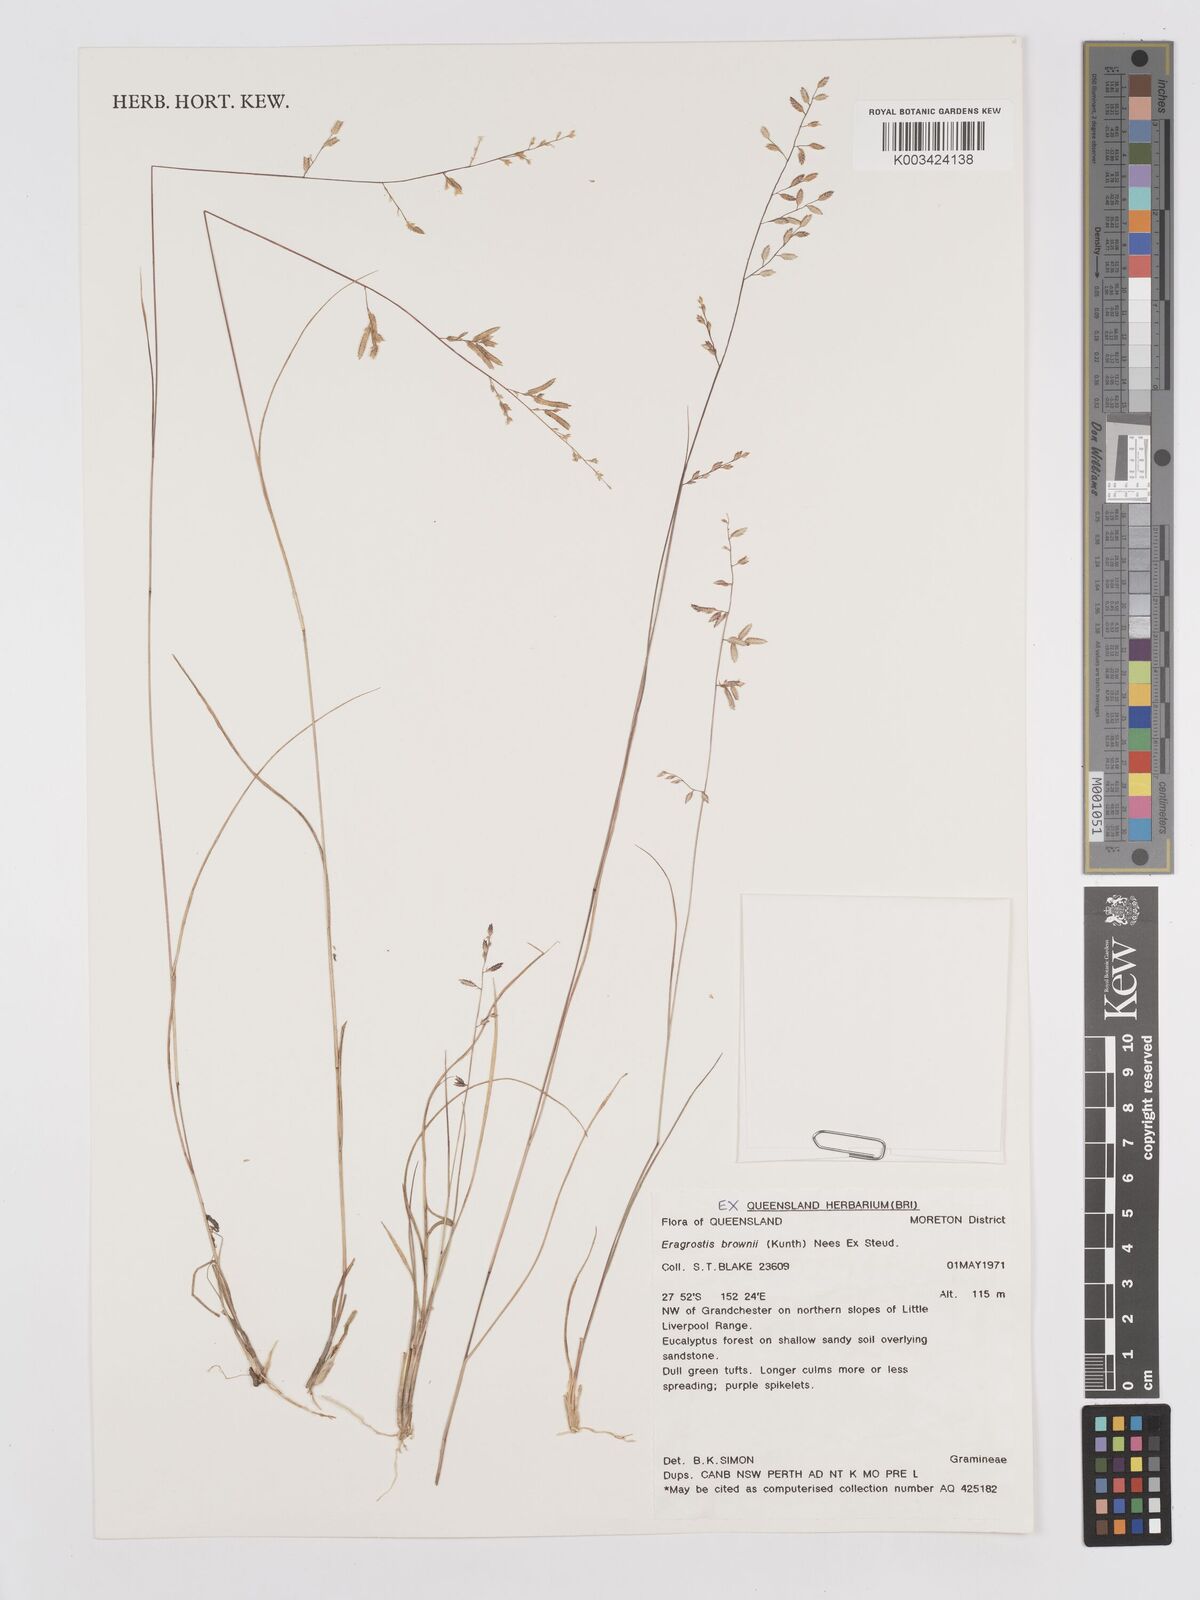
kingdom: Plantae
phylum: Tracheophyta
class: Liliopsida
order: Poales
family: Poaceae
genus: Eragrostis
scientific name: Eragrostis brownii
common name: Lovegrass
